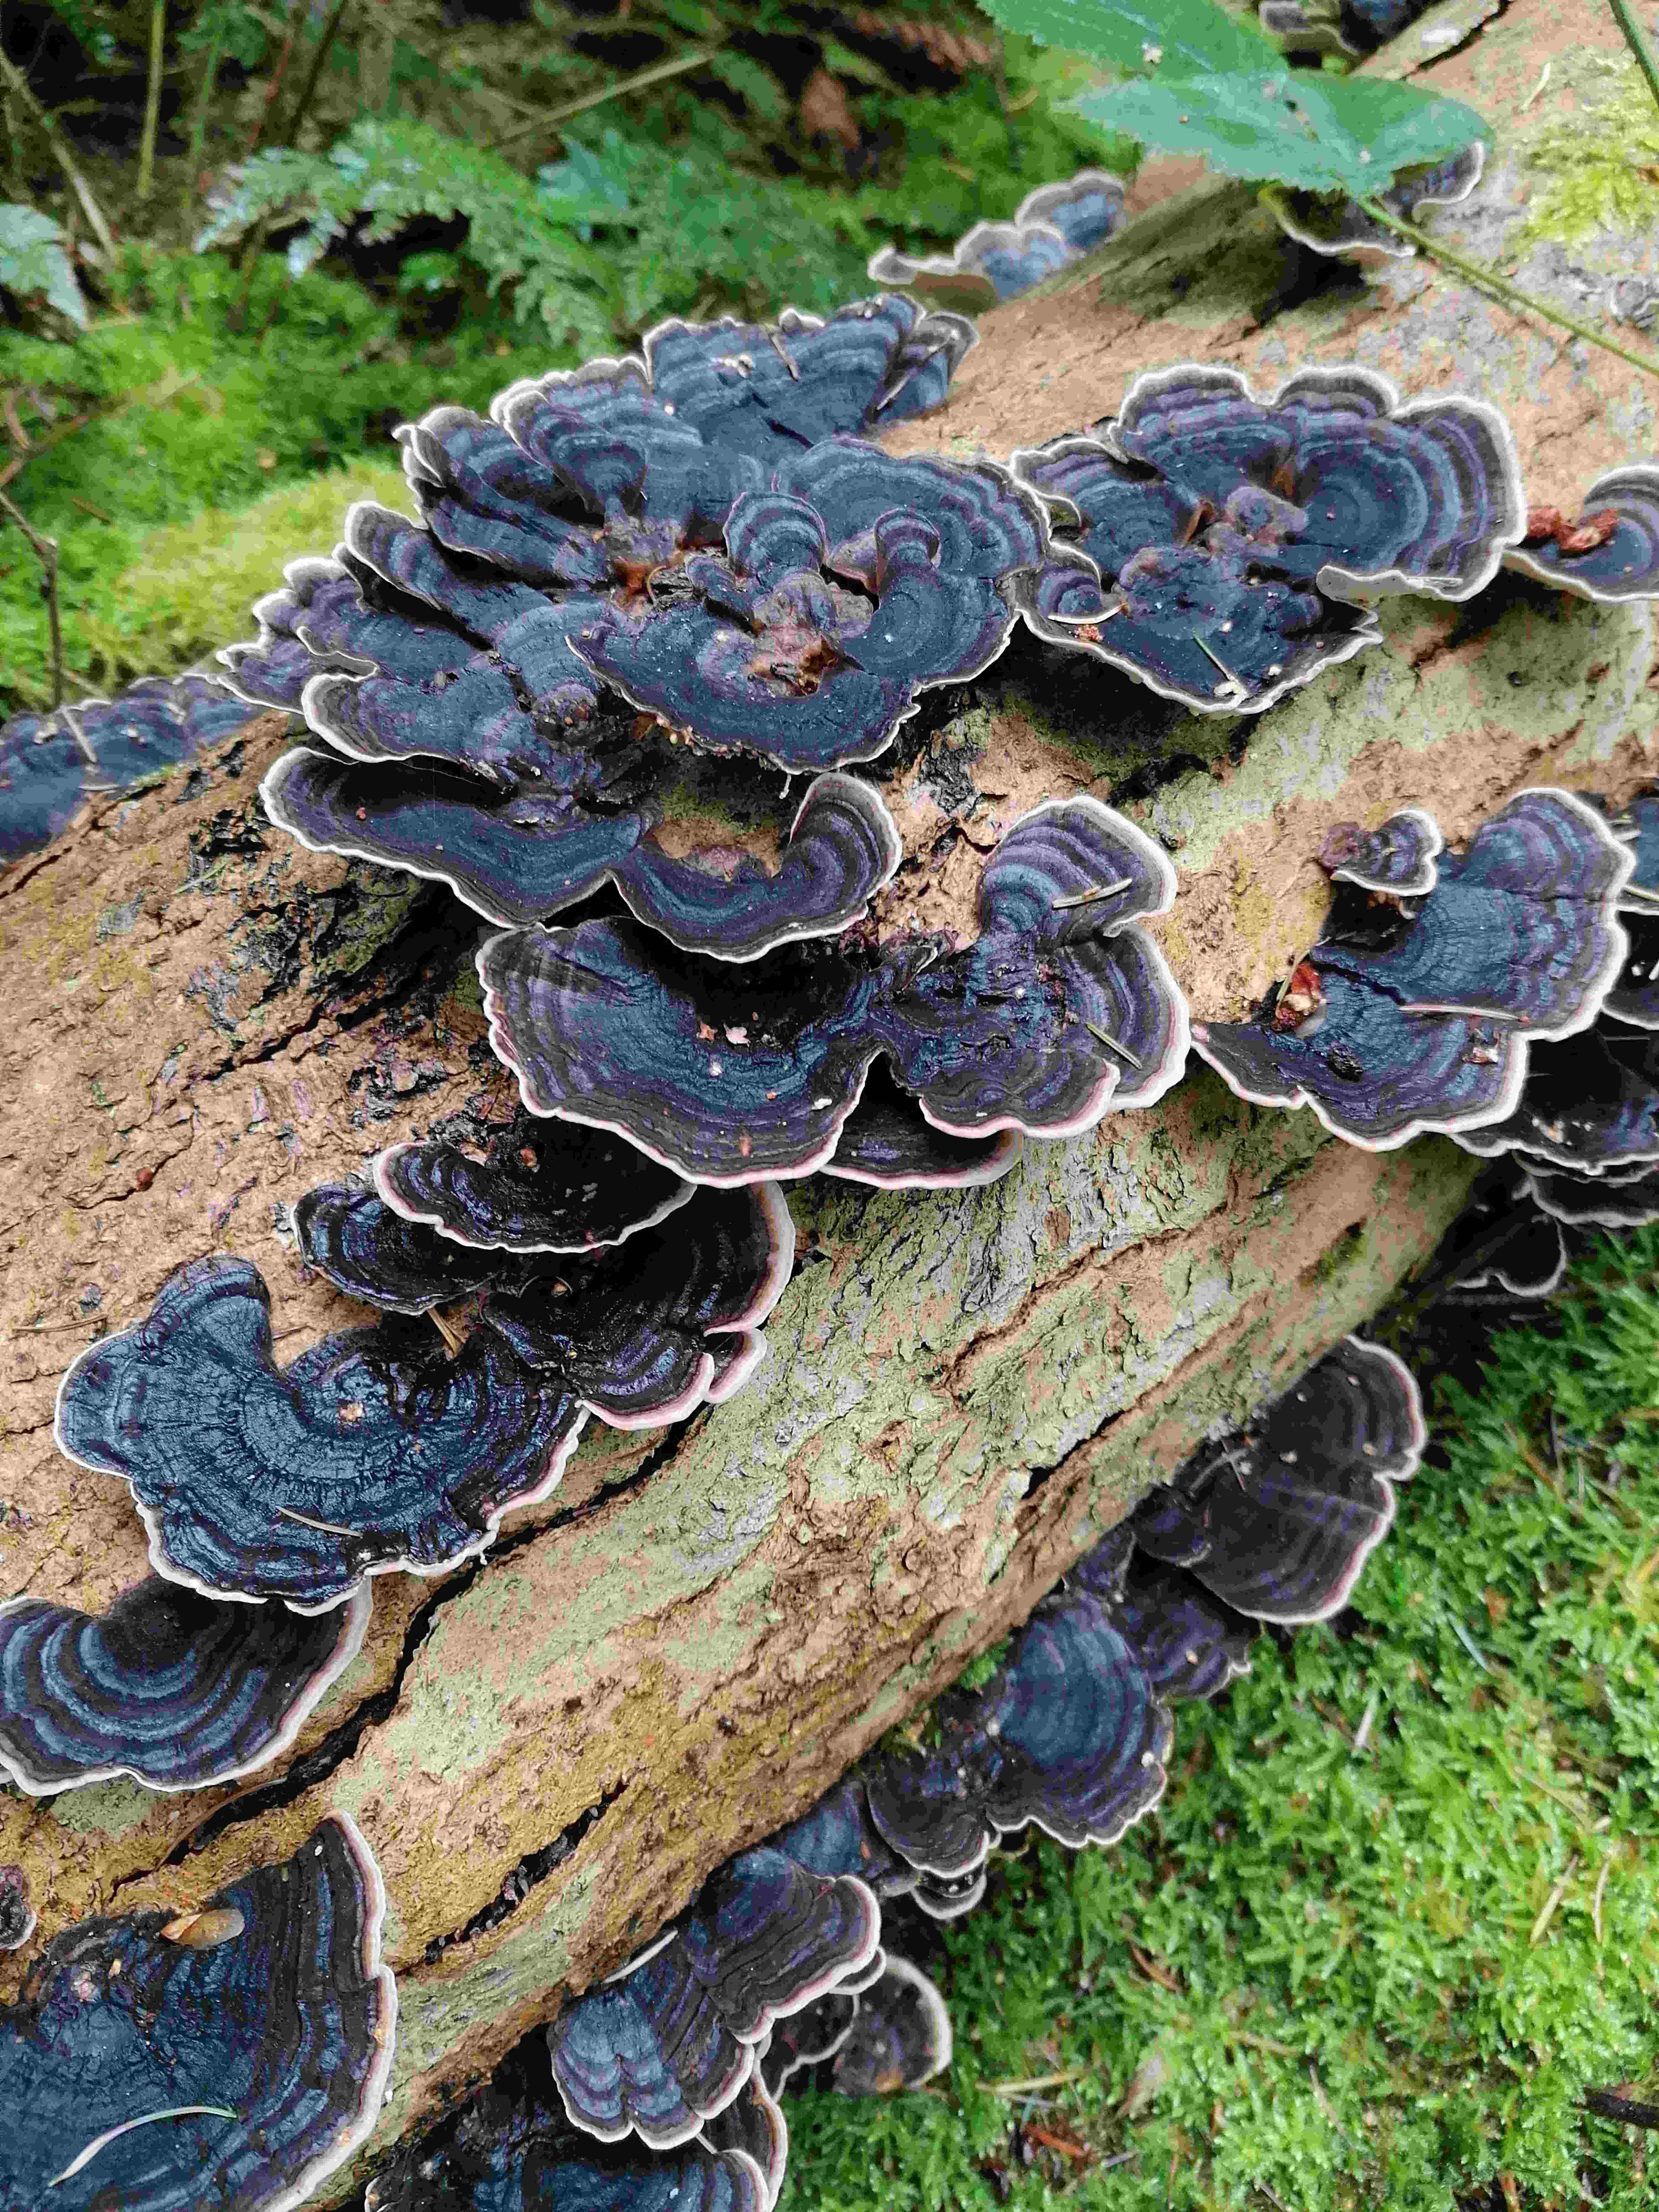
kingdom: Fungi
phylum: Basidiomycota
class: Agaricomycetes
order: Polyporales
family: Polyporaceae
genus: Trametes
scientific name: Trametes versicolor
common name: broget læderporesvamp
